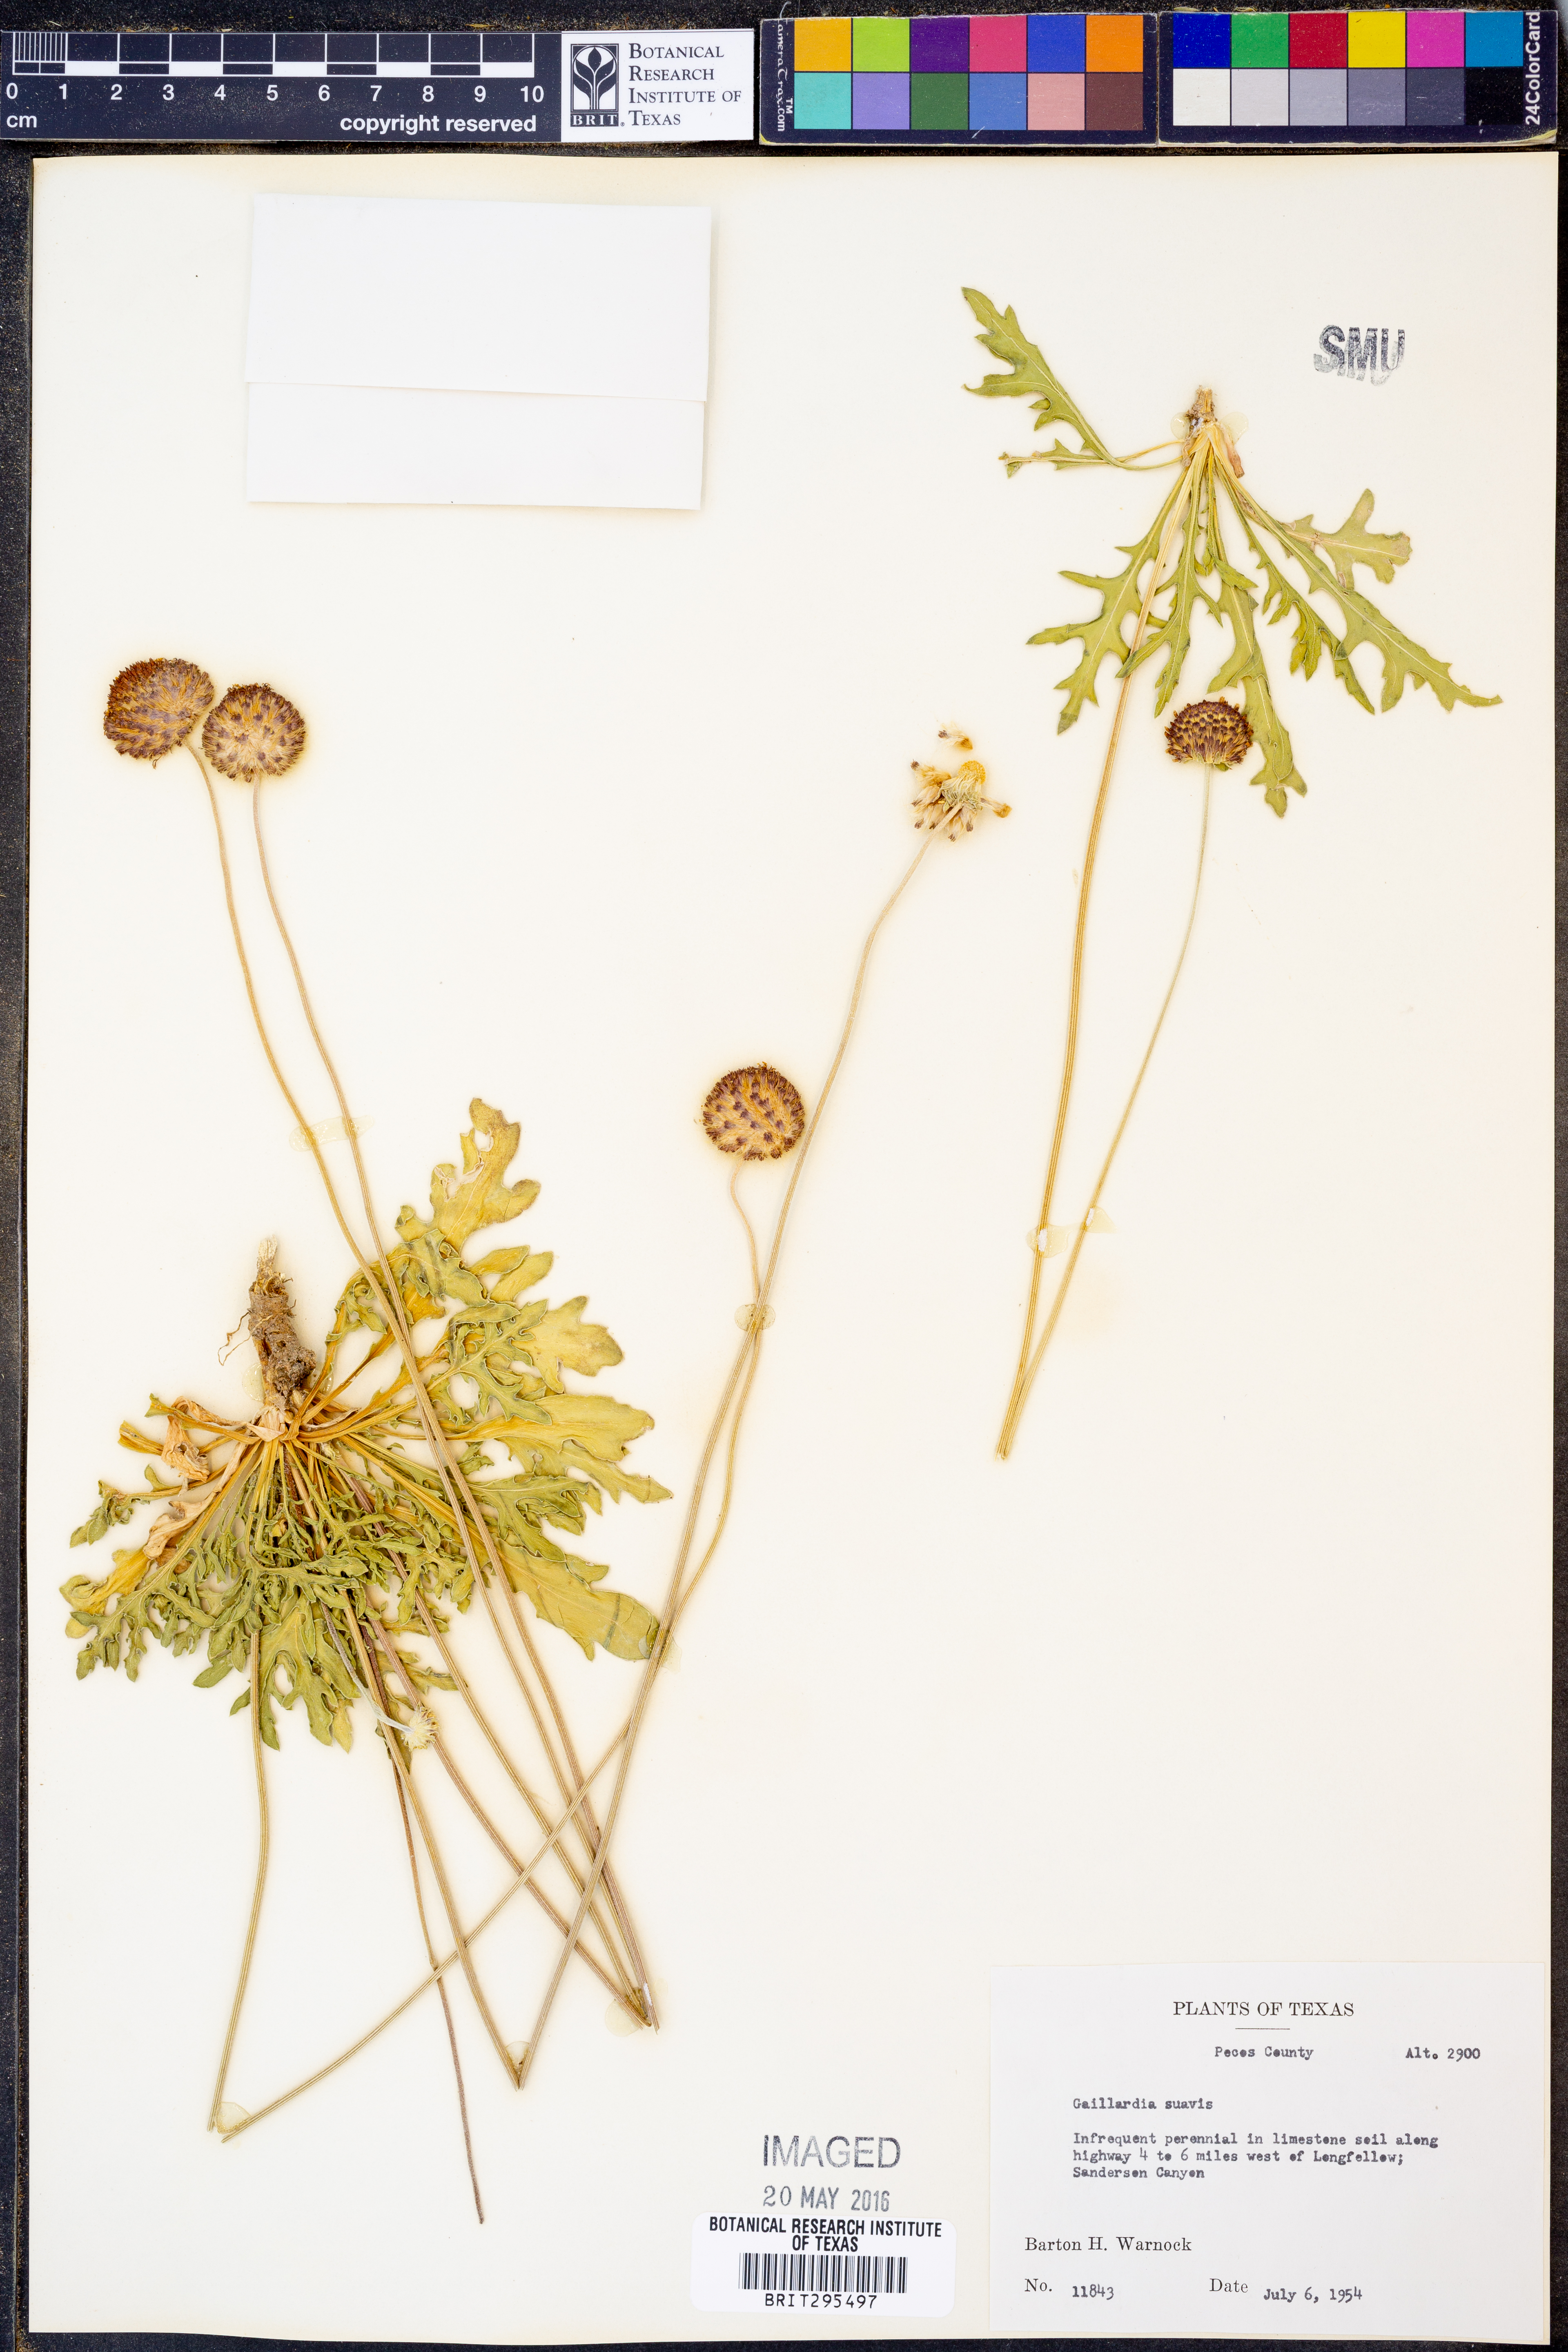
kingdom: Plantae
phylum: Tracheophyta
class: Magnoliopsida
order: Asterales
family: Asteraceae
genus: Gaillardia
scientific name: Gaillardia suavis
